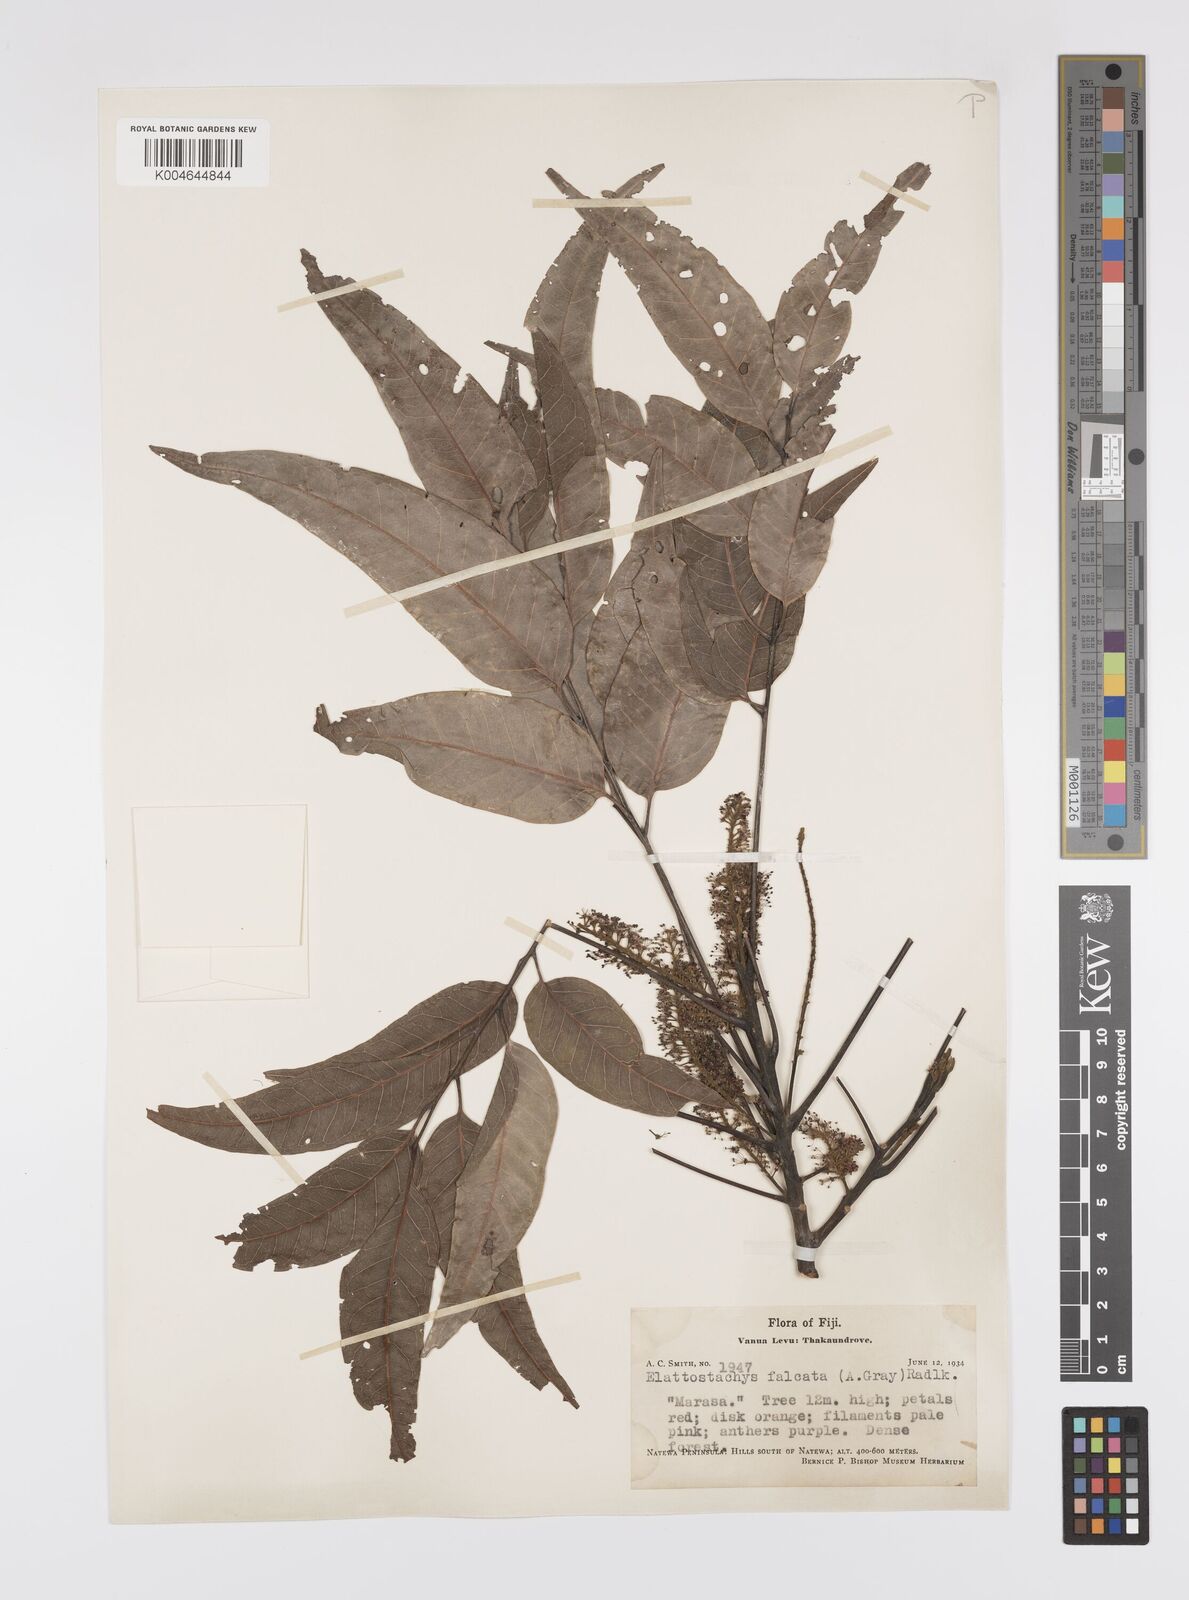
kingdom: Plantae
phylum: Tracheophyta
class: Magnoliopsida
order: Sapindales
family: Sapindaceae
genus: Elattostachys
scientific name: Elattostachys apetala
